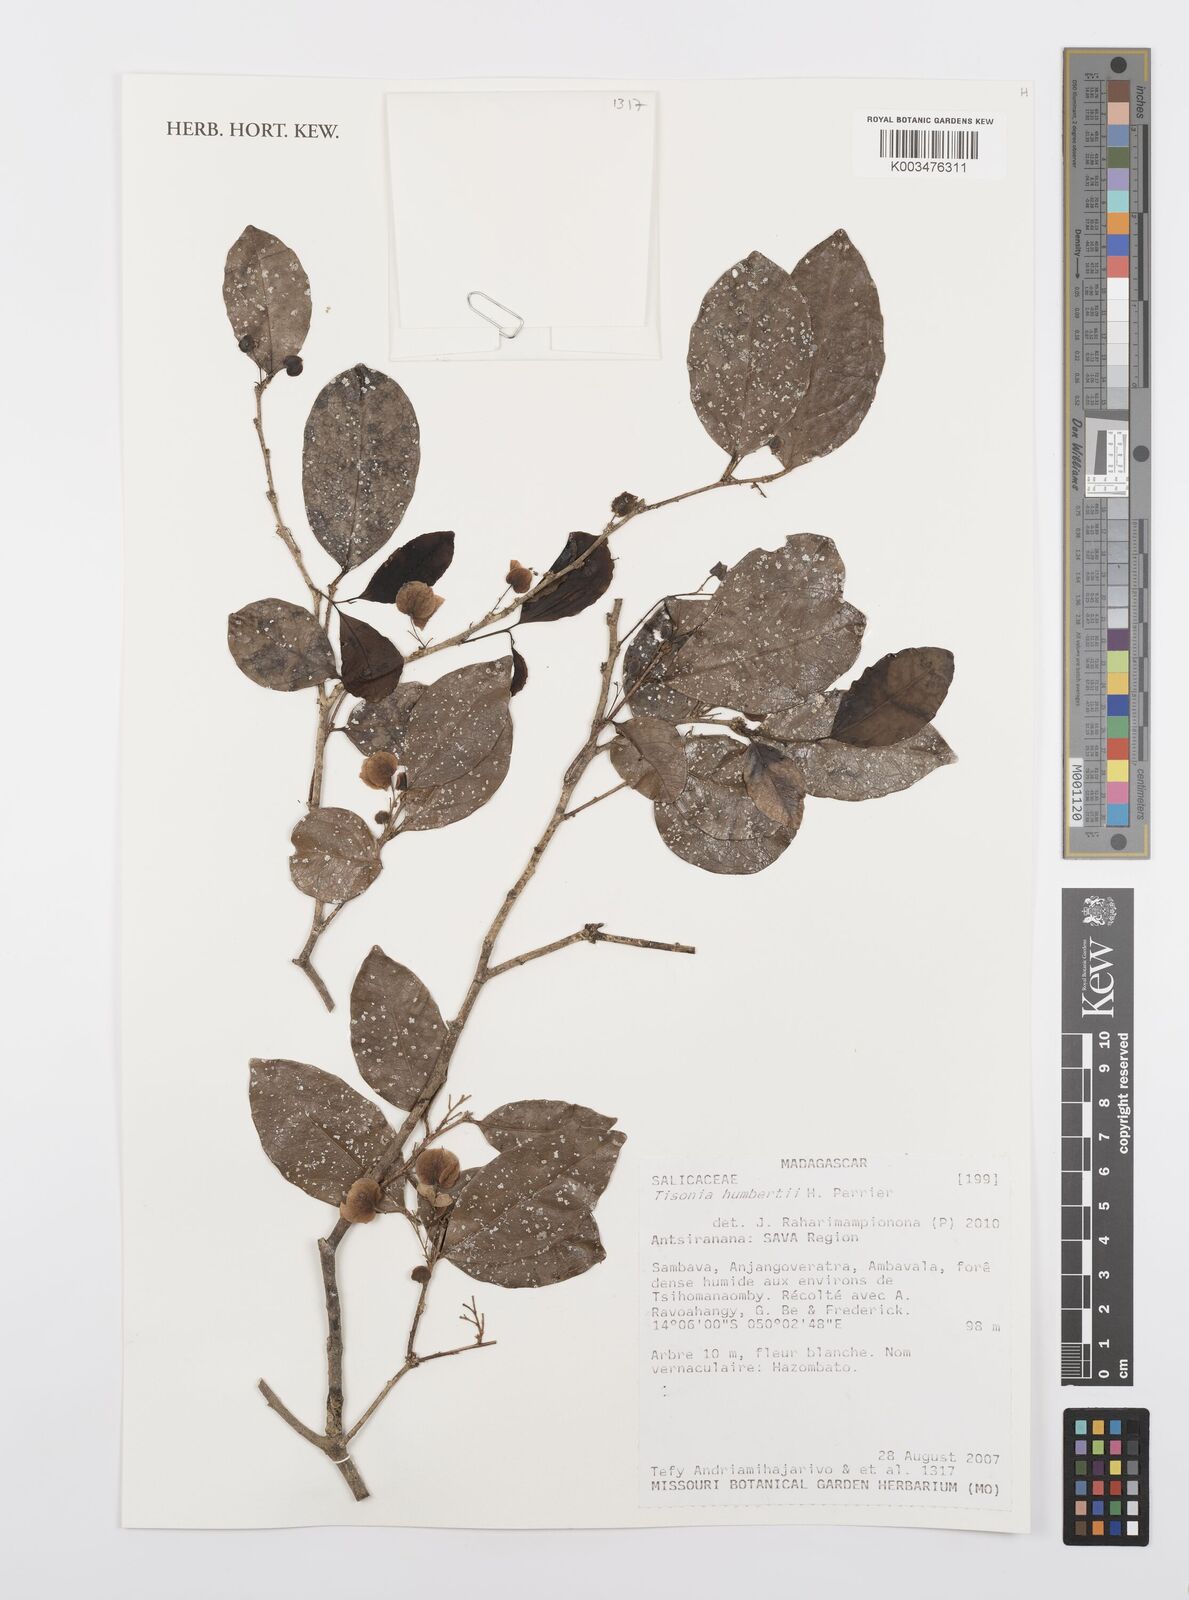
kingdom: Plantae
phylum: Tracheophyta
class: Magnoliopsida
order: Malpighiales
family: Salicaceae
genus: Tisonia
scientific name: Tisonia humbertii
